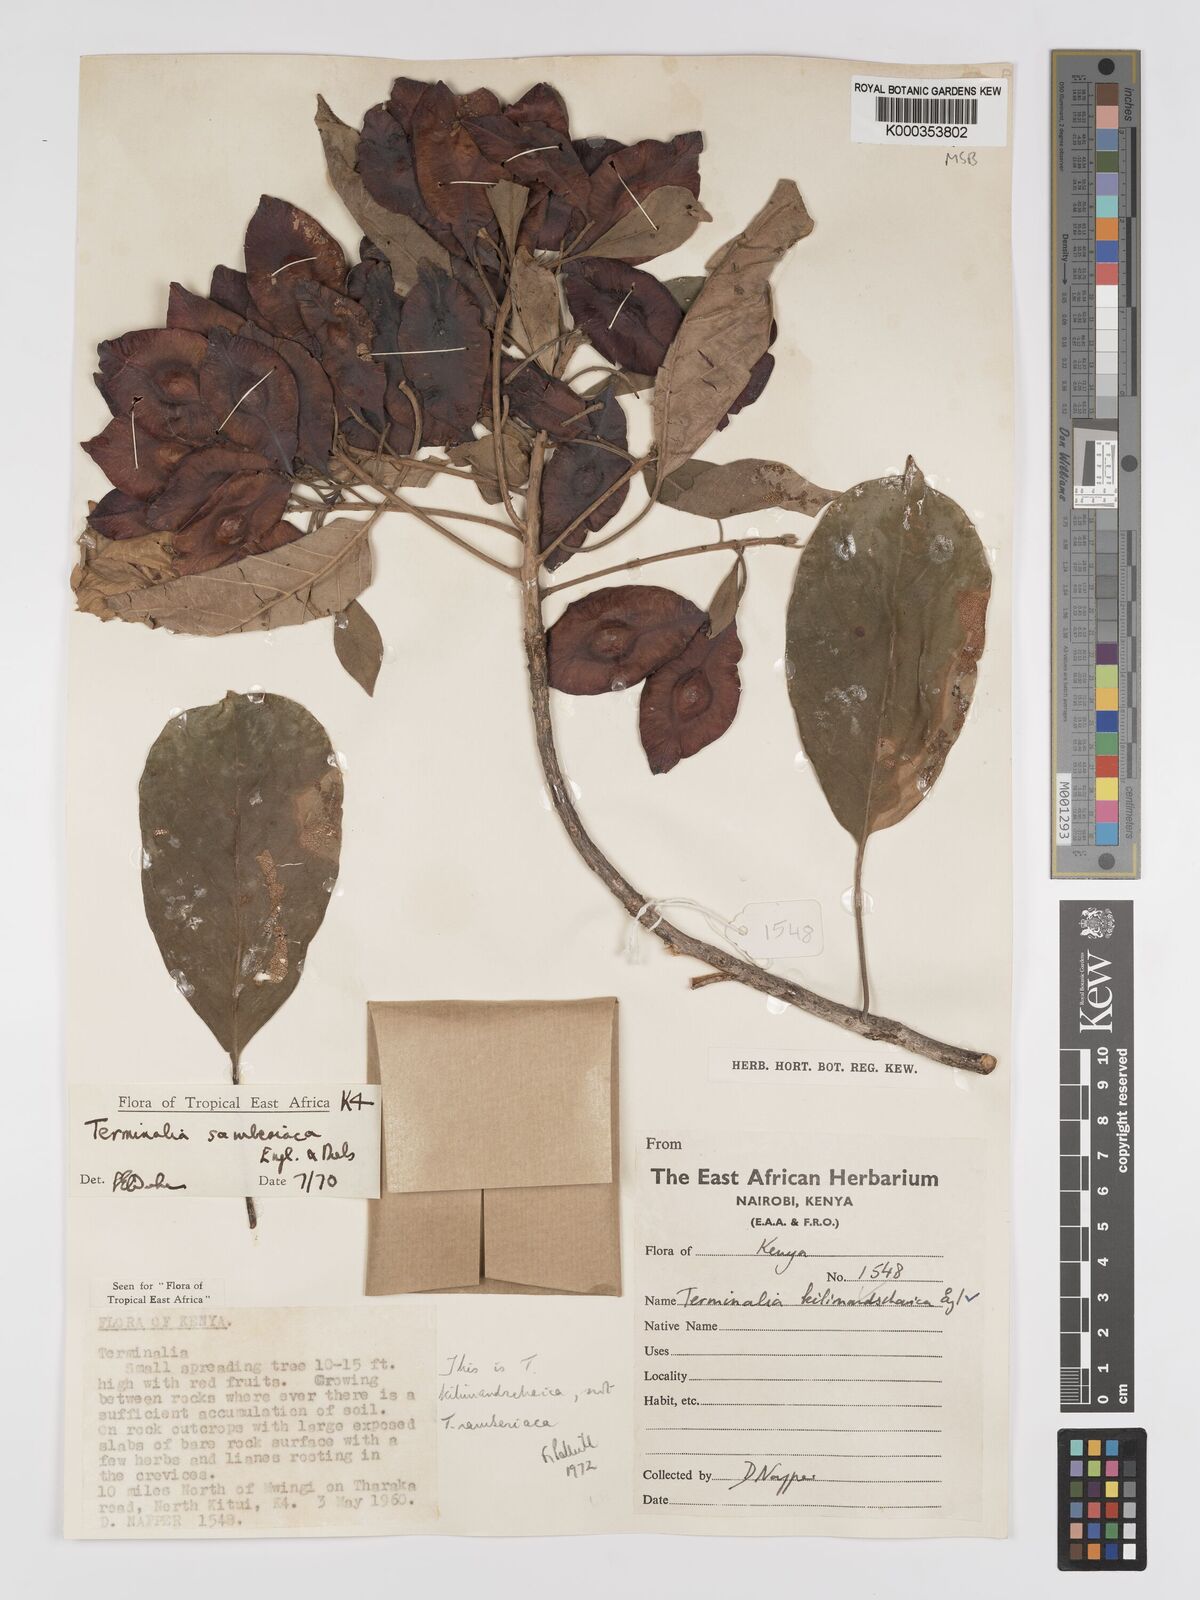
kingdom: Plantae
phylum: Tracheophyta
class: Magnoliopsida
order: Myrtales
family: Combretaceae
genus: Terminalia
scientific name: Terminalia kilimandscharica
